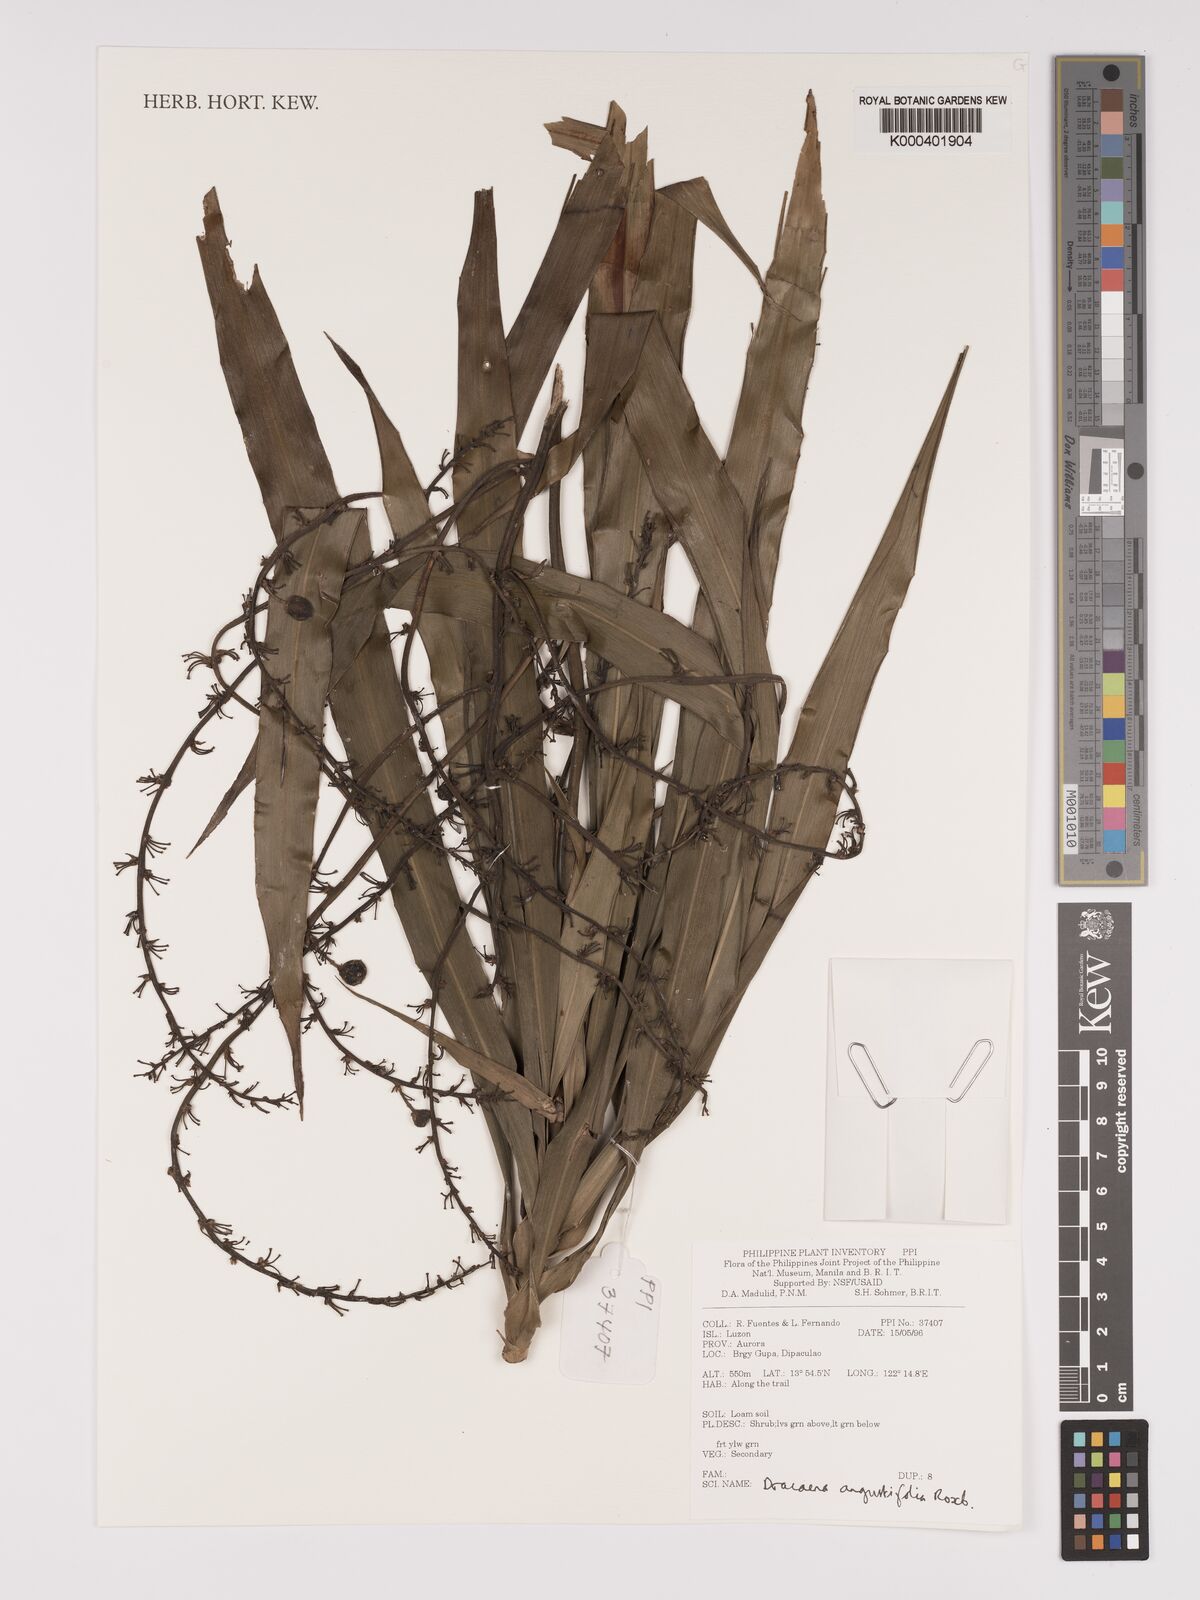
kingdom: Plantae
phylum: Tracheophyta
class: Liliopsida
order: Asparagales
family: Asparagaceae
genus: Dracaena
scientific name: Dracaena angustifolia
